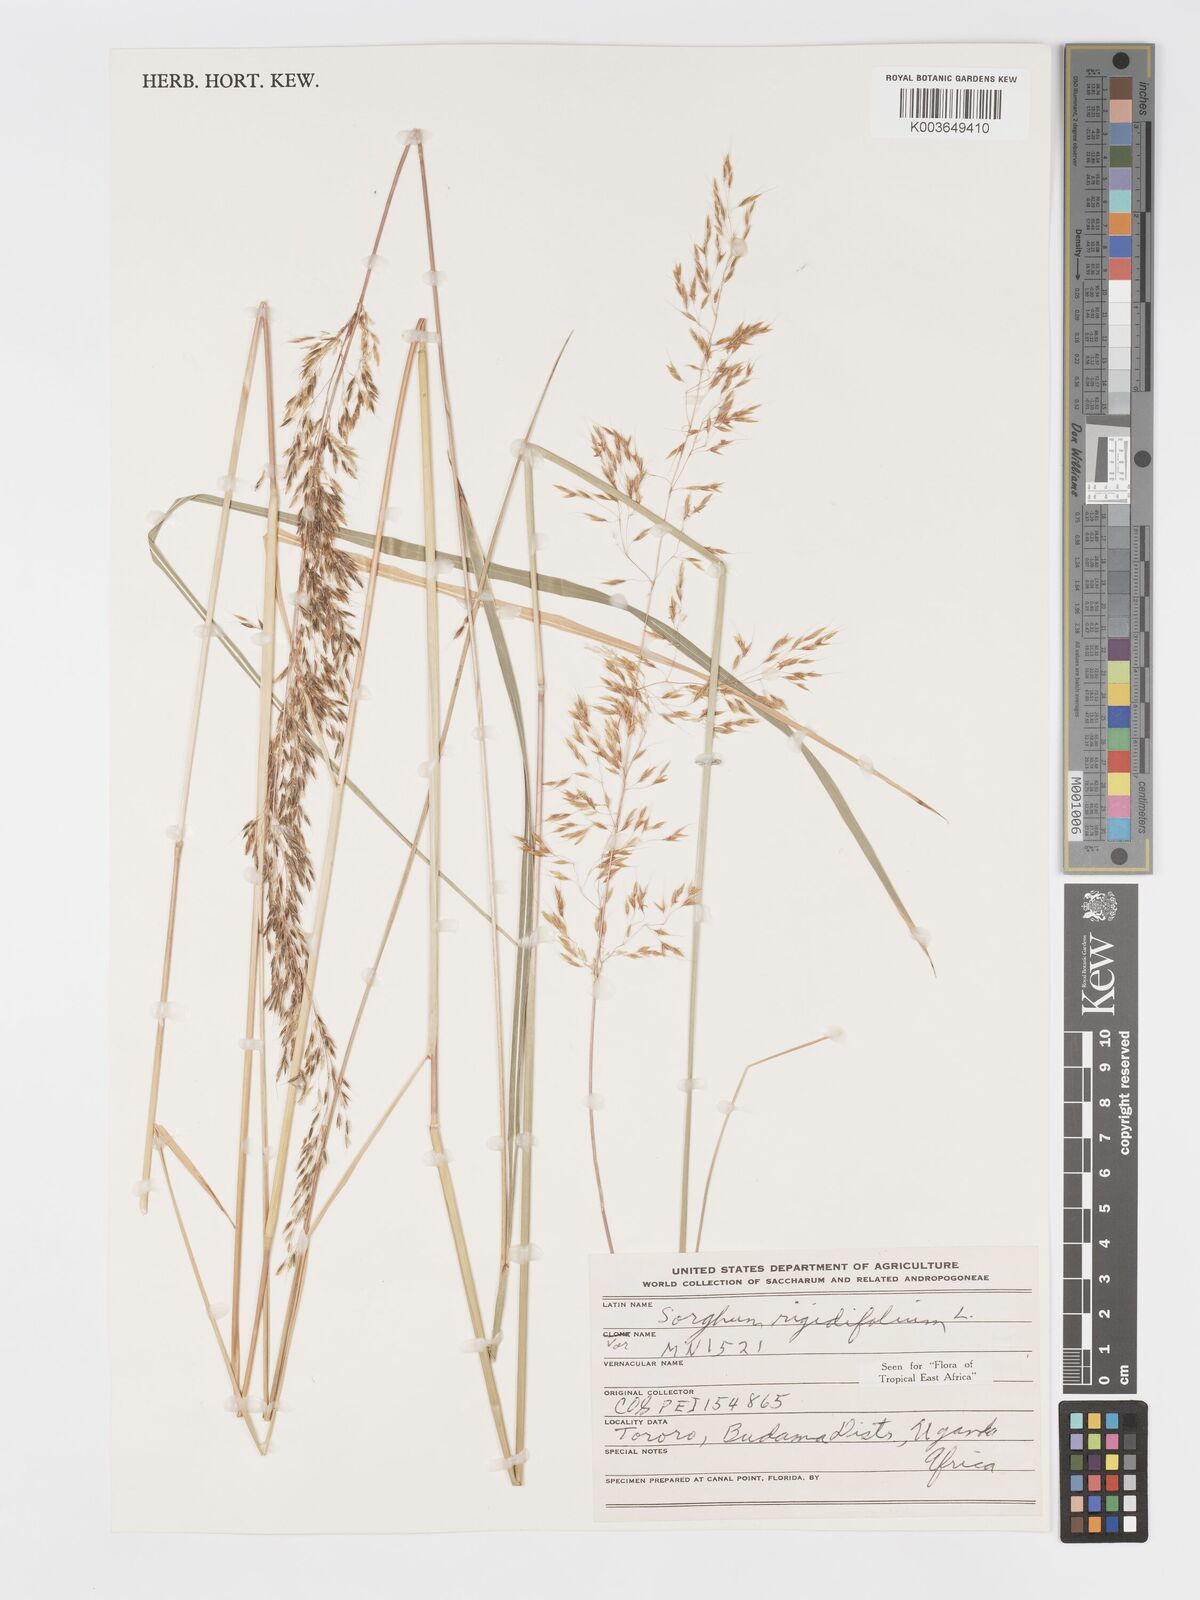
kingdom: Plantae
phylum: Tracheophyta
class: Liliopsida
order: Poales
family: Poaceae
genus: Sorghastrum
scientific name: Sorghastrum stipoides
